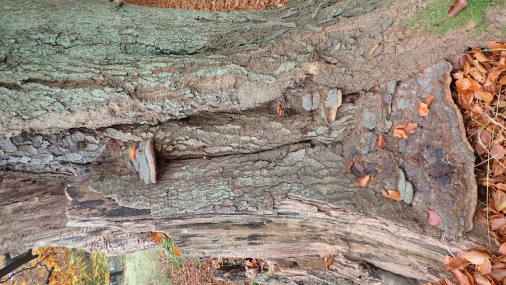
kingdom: Fungi
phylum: Basidiomycota
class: Agaricomycetes
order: Polyporales
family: Polyporaceae
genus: Ganoderma
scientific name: Ganoderma pfeifferi
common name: kobberrød lakporesvamp
